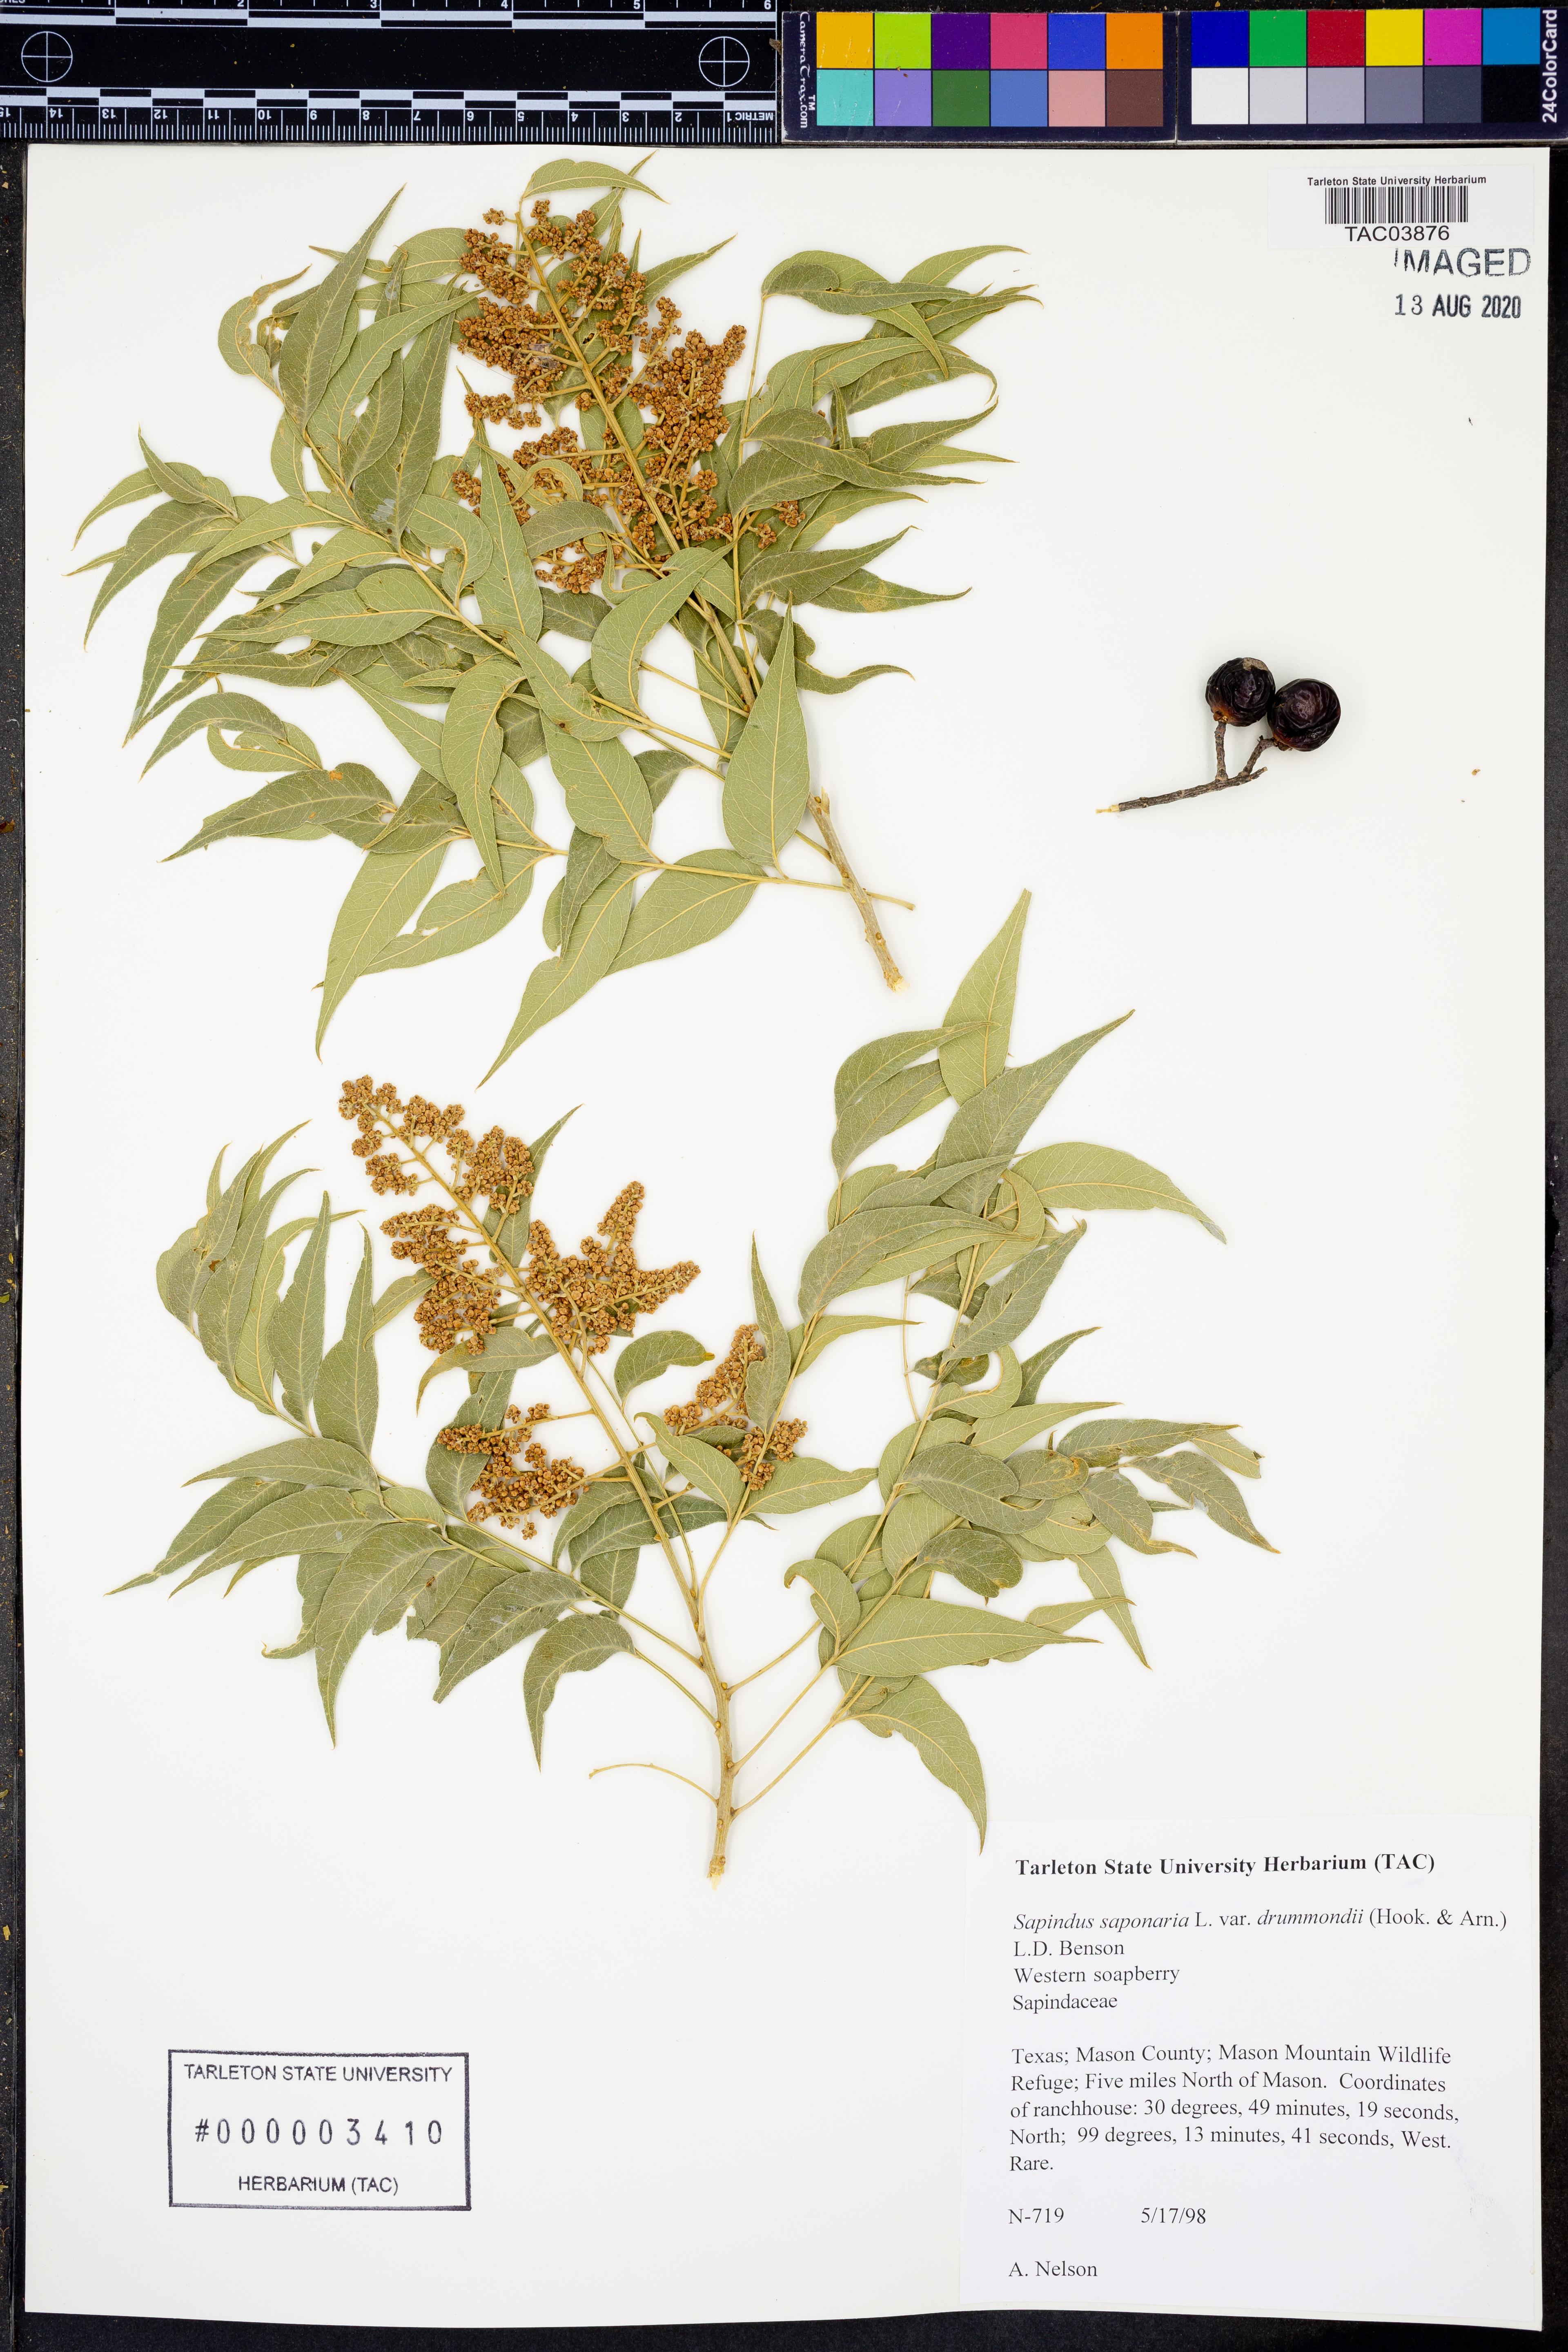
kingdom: Plantae
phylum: Tracheophyta
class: Magnoliopsida
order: Sapindales
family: Sapindaceae
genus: Sapindus
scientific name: Sapindus drummondii
